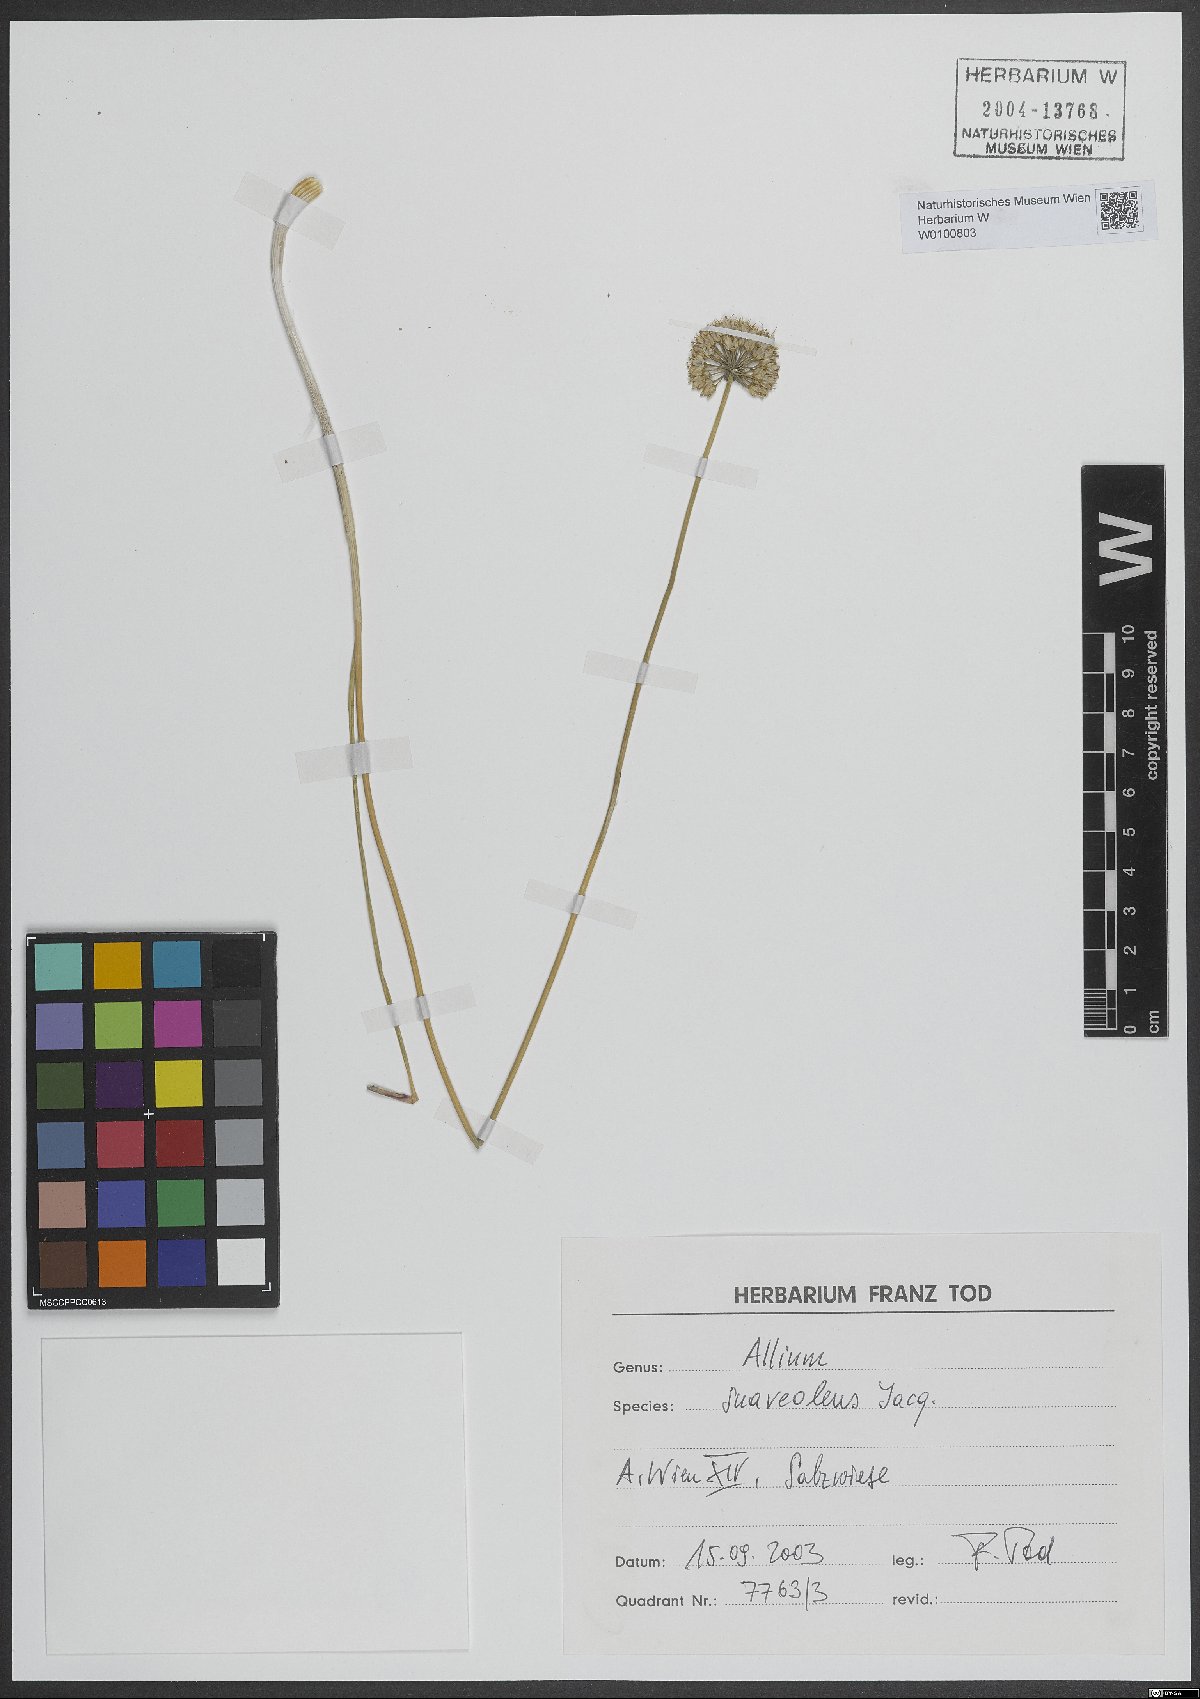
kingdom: Plantae
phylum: Tracheophyta
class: Liliopsida
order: Asparagales
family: Amaryllidaceae
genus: Allium
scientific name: Allium suaveolens
